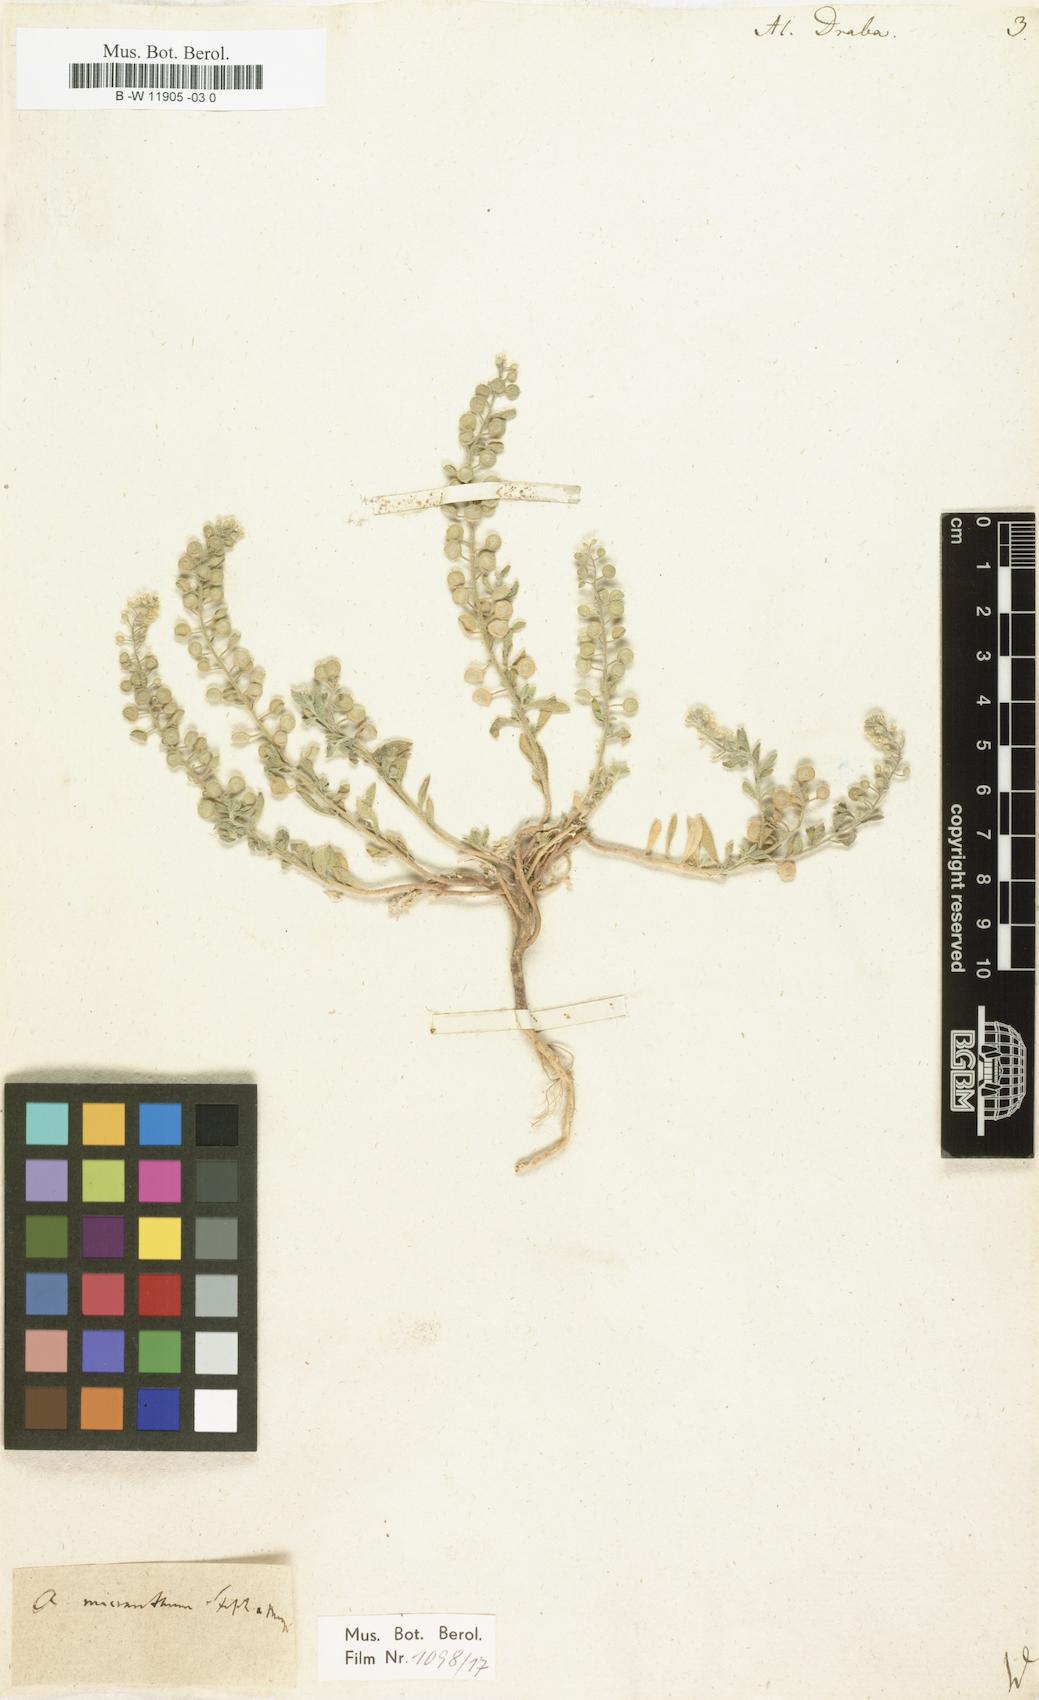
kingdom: Plantae
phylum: Tracheophyta
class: Magnoliopsida
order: Brassicales
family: Brassicaceae
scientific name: Brassicaceae
